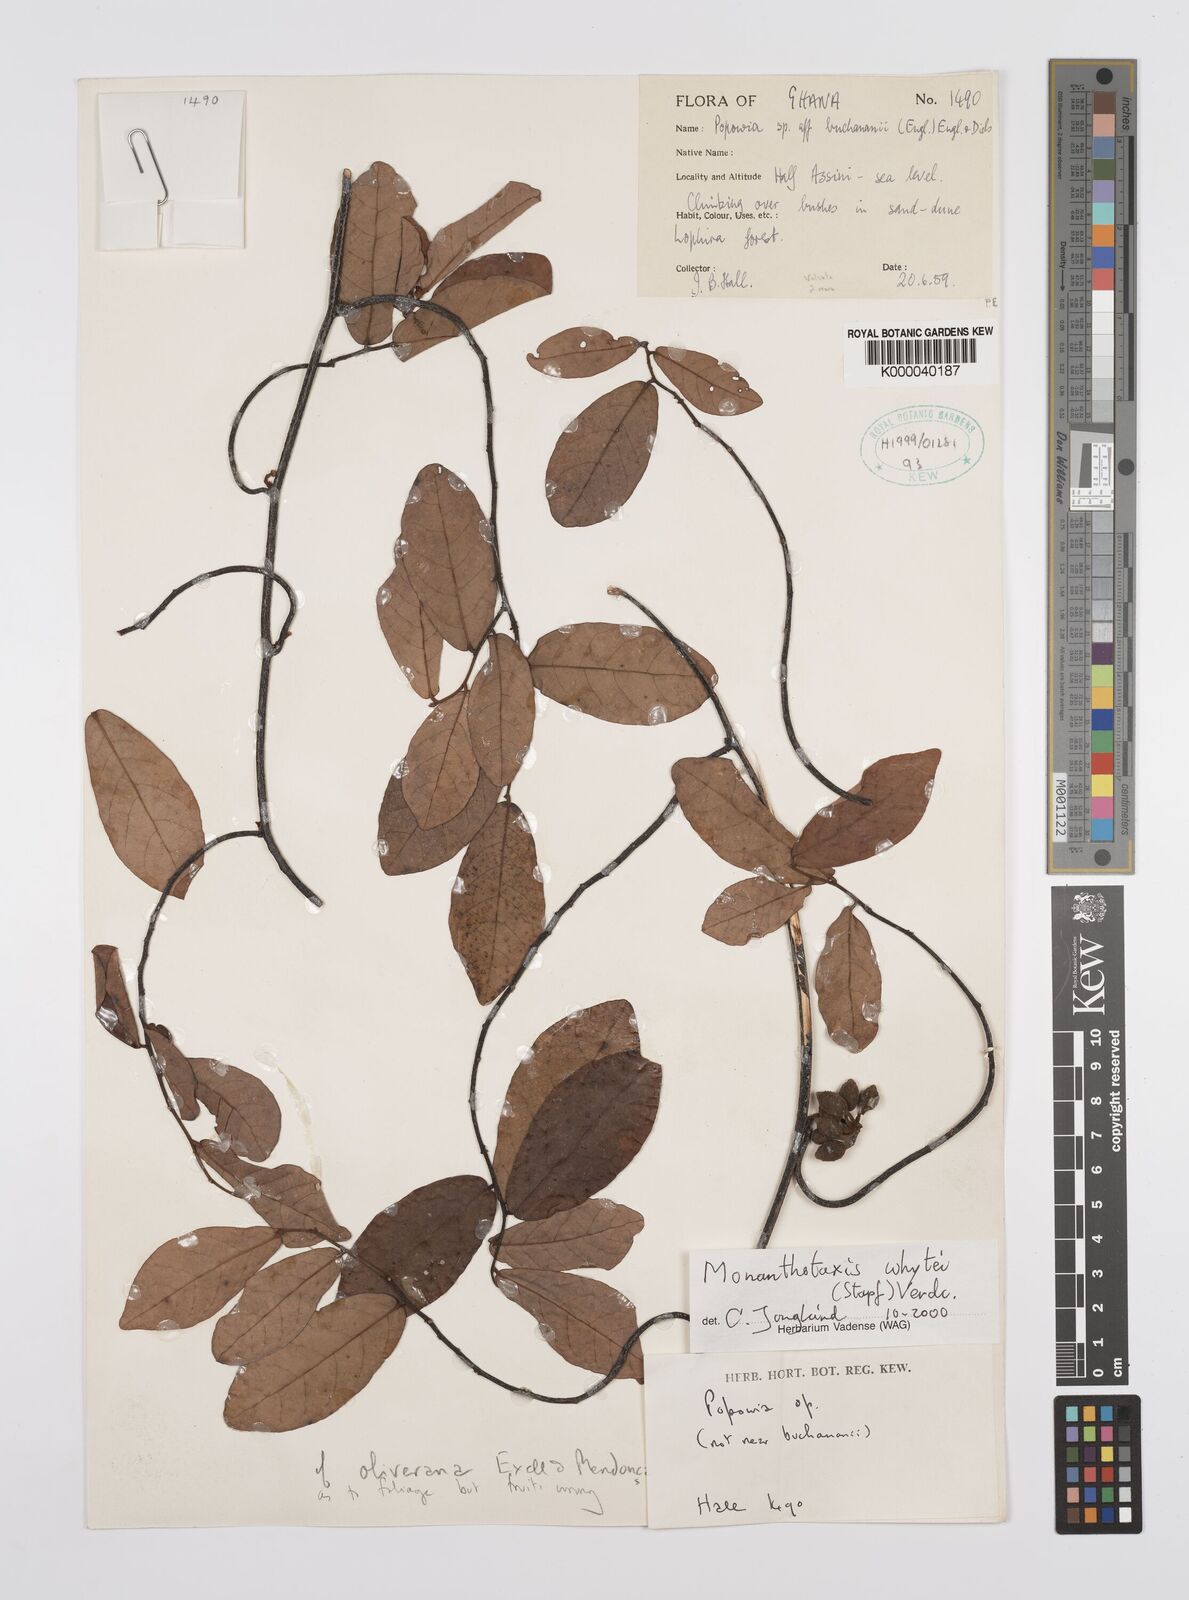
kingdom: Plantae
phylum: Tracheophyta
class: Magnoliopsida
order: Magnoliales
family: Annonaceae
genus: Popowia
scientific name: Popowia
